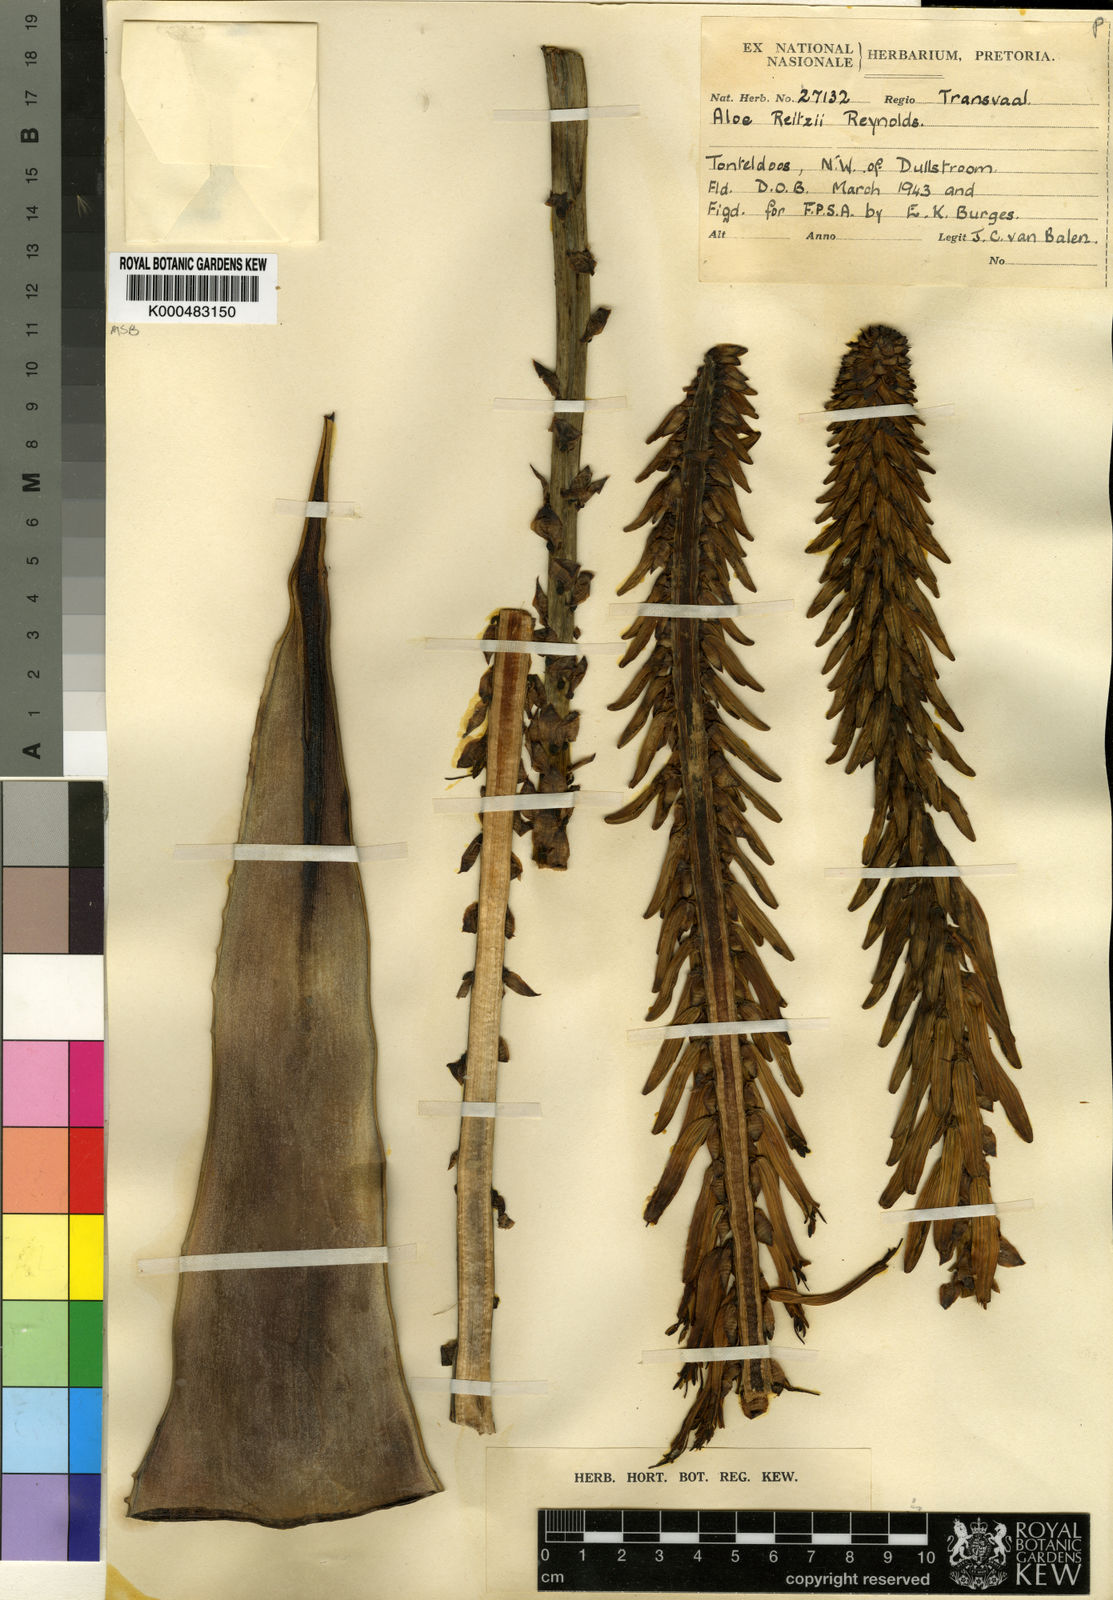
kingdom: Plantae
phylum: Tracheophyta
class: Liliopsida
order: Asparagales
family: Asphodelaceae
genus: Aloe
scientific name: Aloe reitzii
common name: Reitz's aloe
